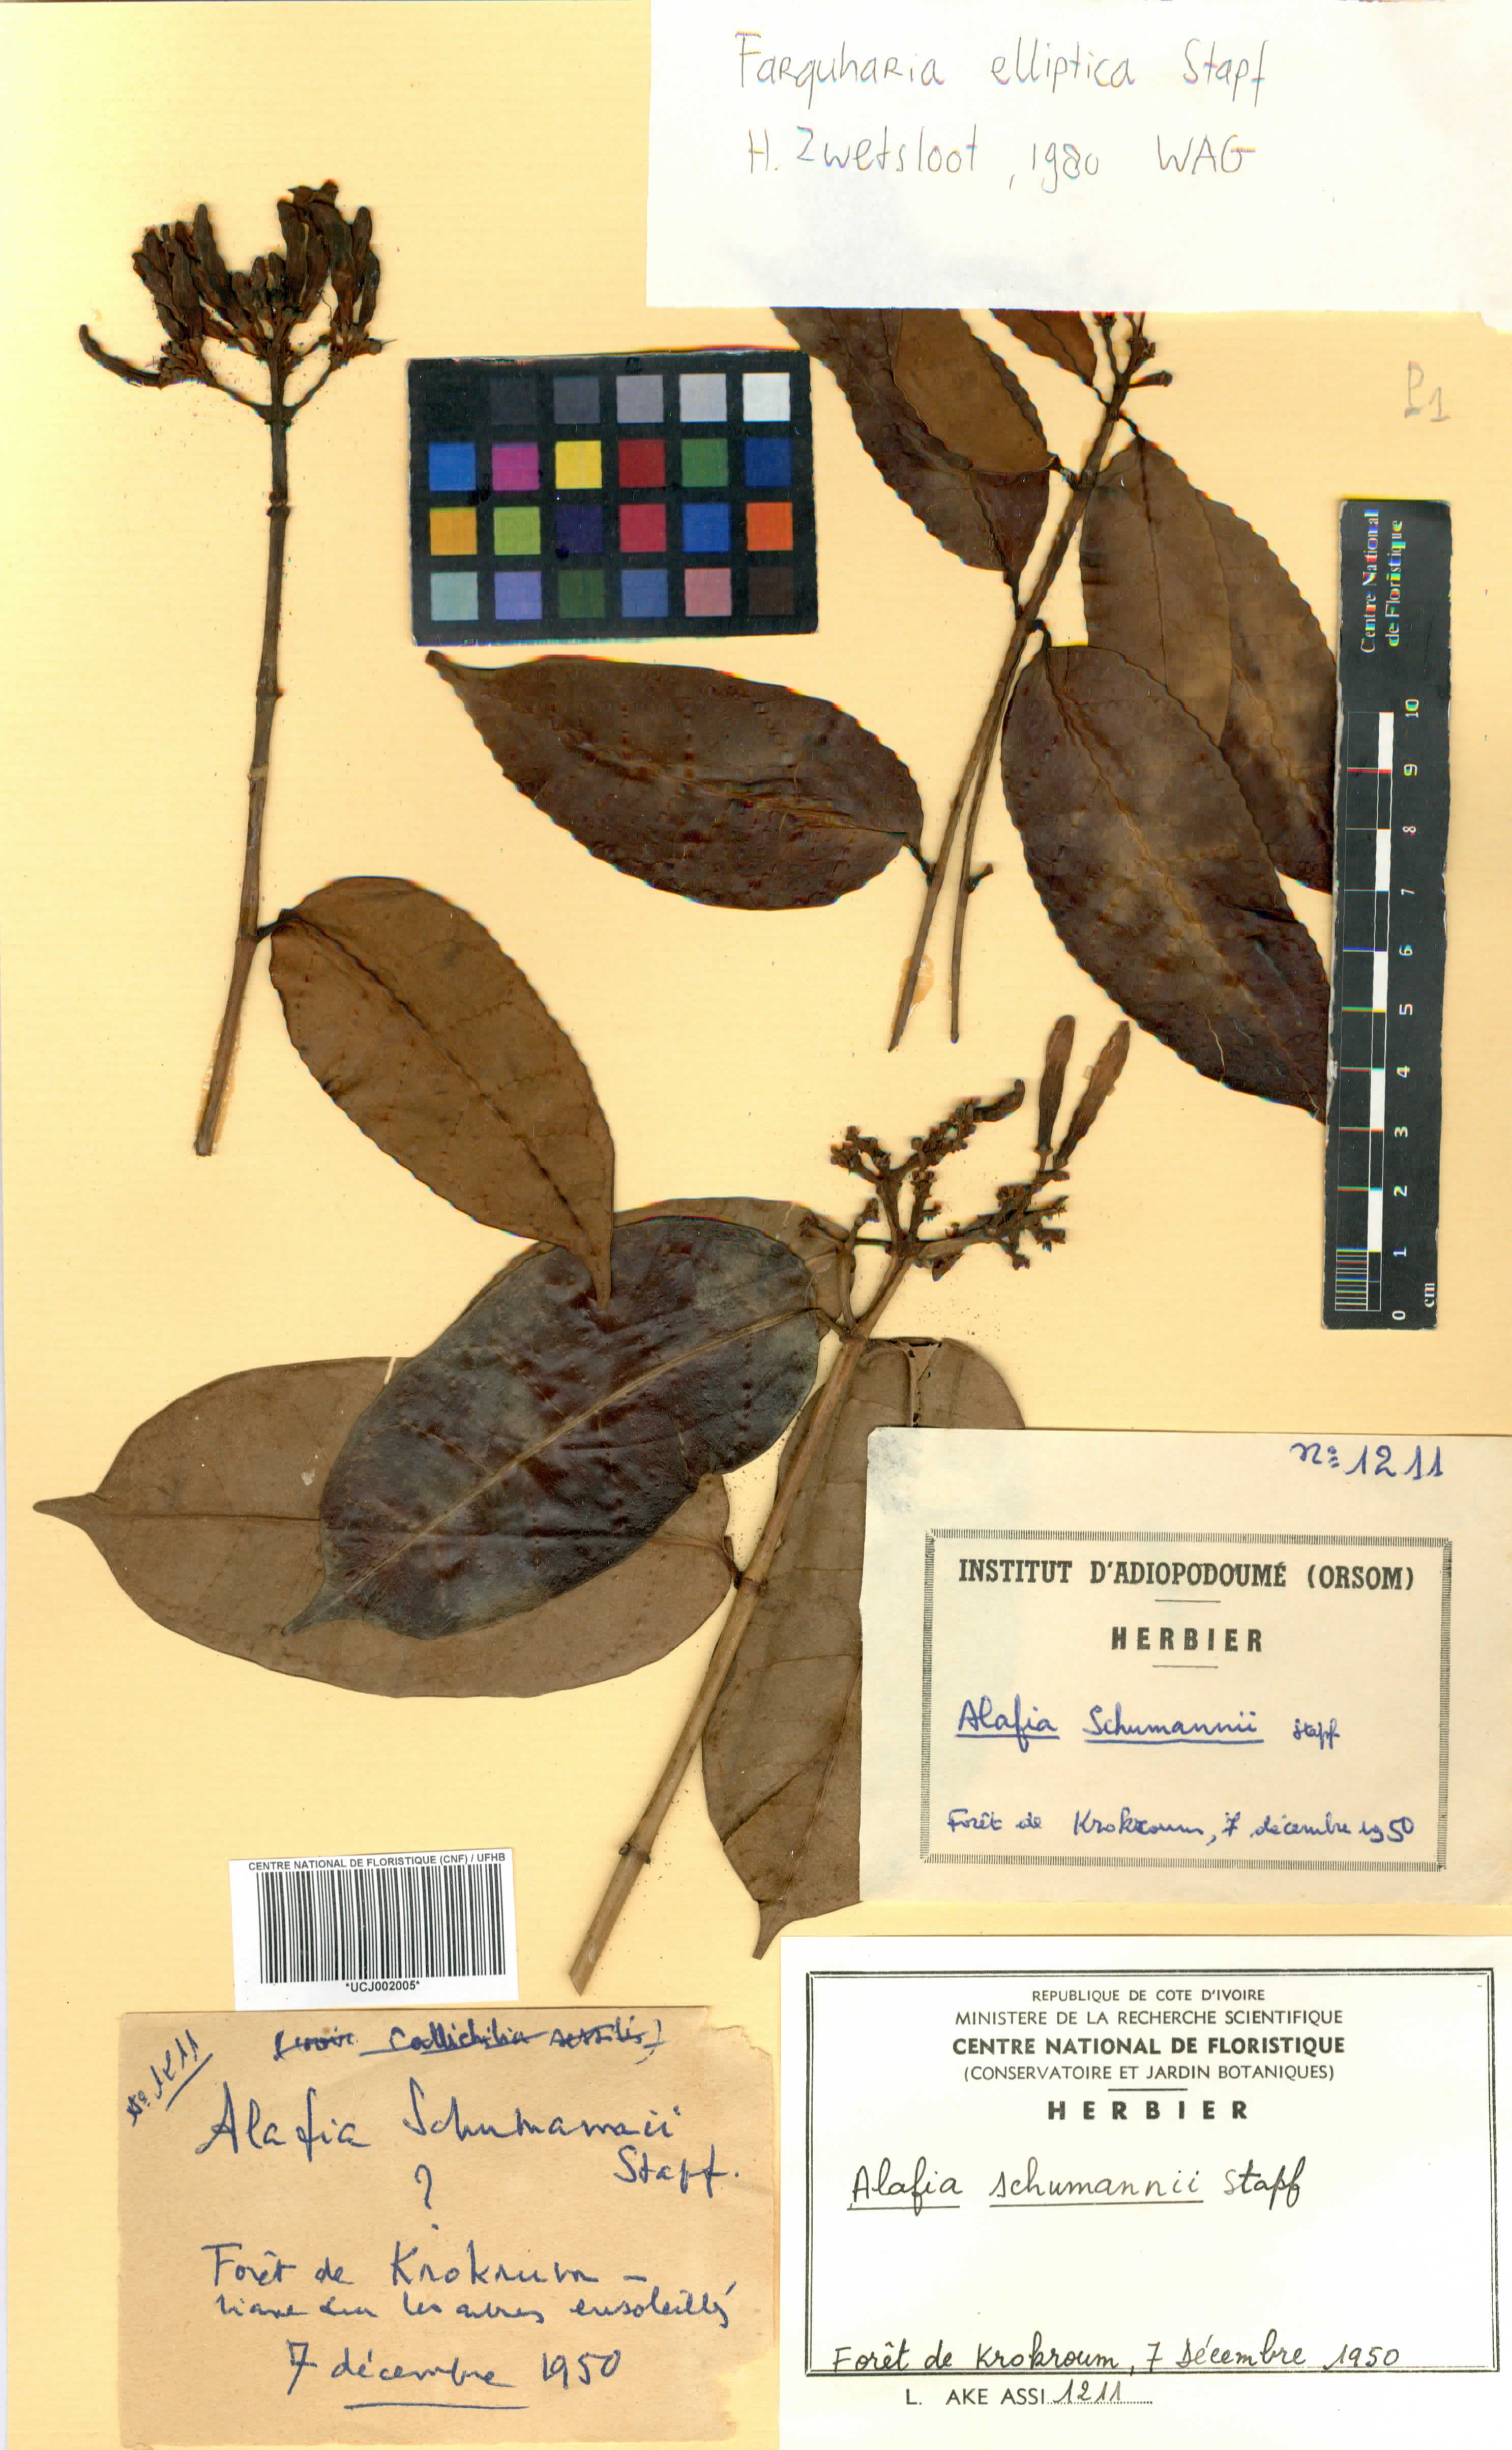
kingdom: Plantae
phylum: Tracheophyta
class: Magnoliopsida
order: Gentianales
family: Apocynaceae
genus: Farquharia
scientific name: Farquharia elliptica
